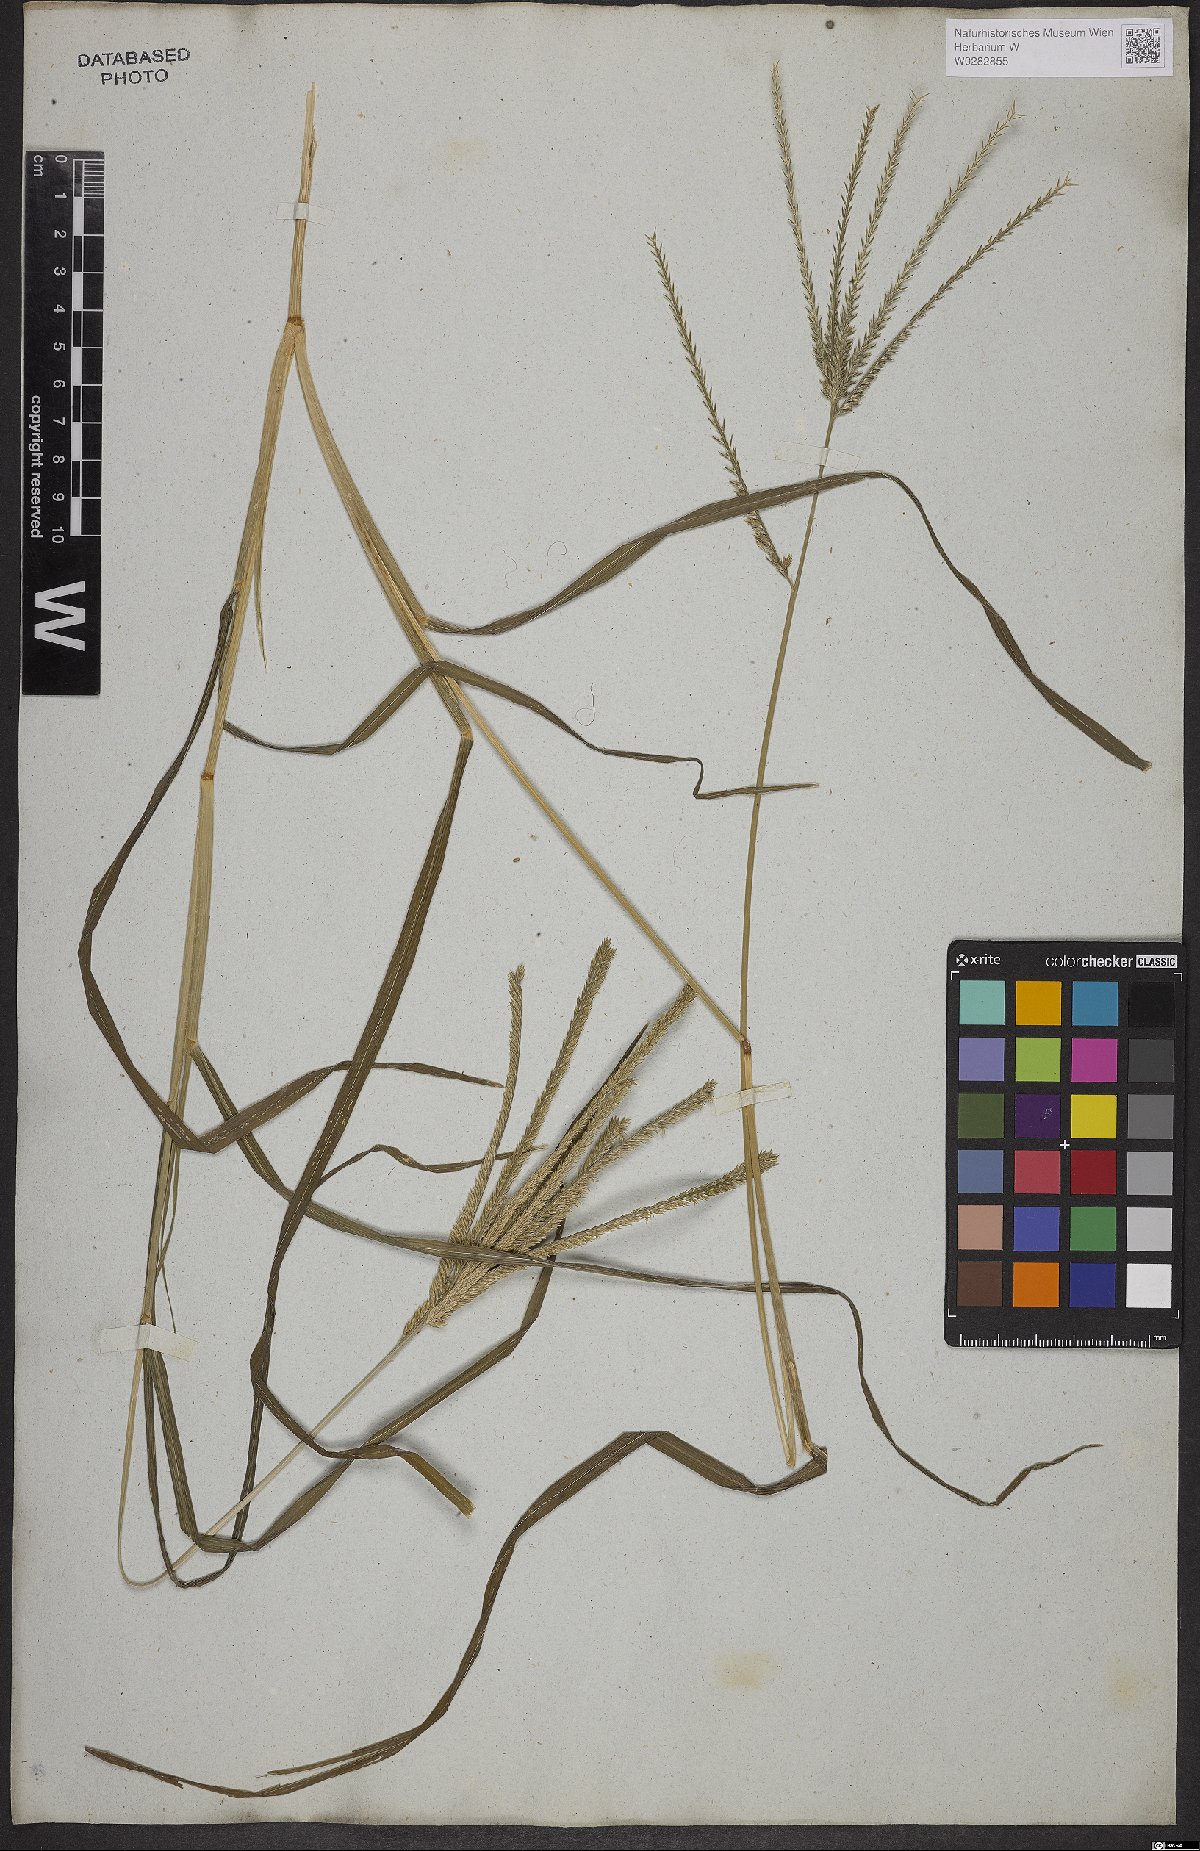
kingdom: Plantae
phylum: Tracheophyta
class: Liliopsida
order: Poales
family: Poaceae
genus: Eleusine
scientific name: Eleusine indica
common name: Yard-grass
